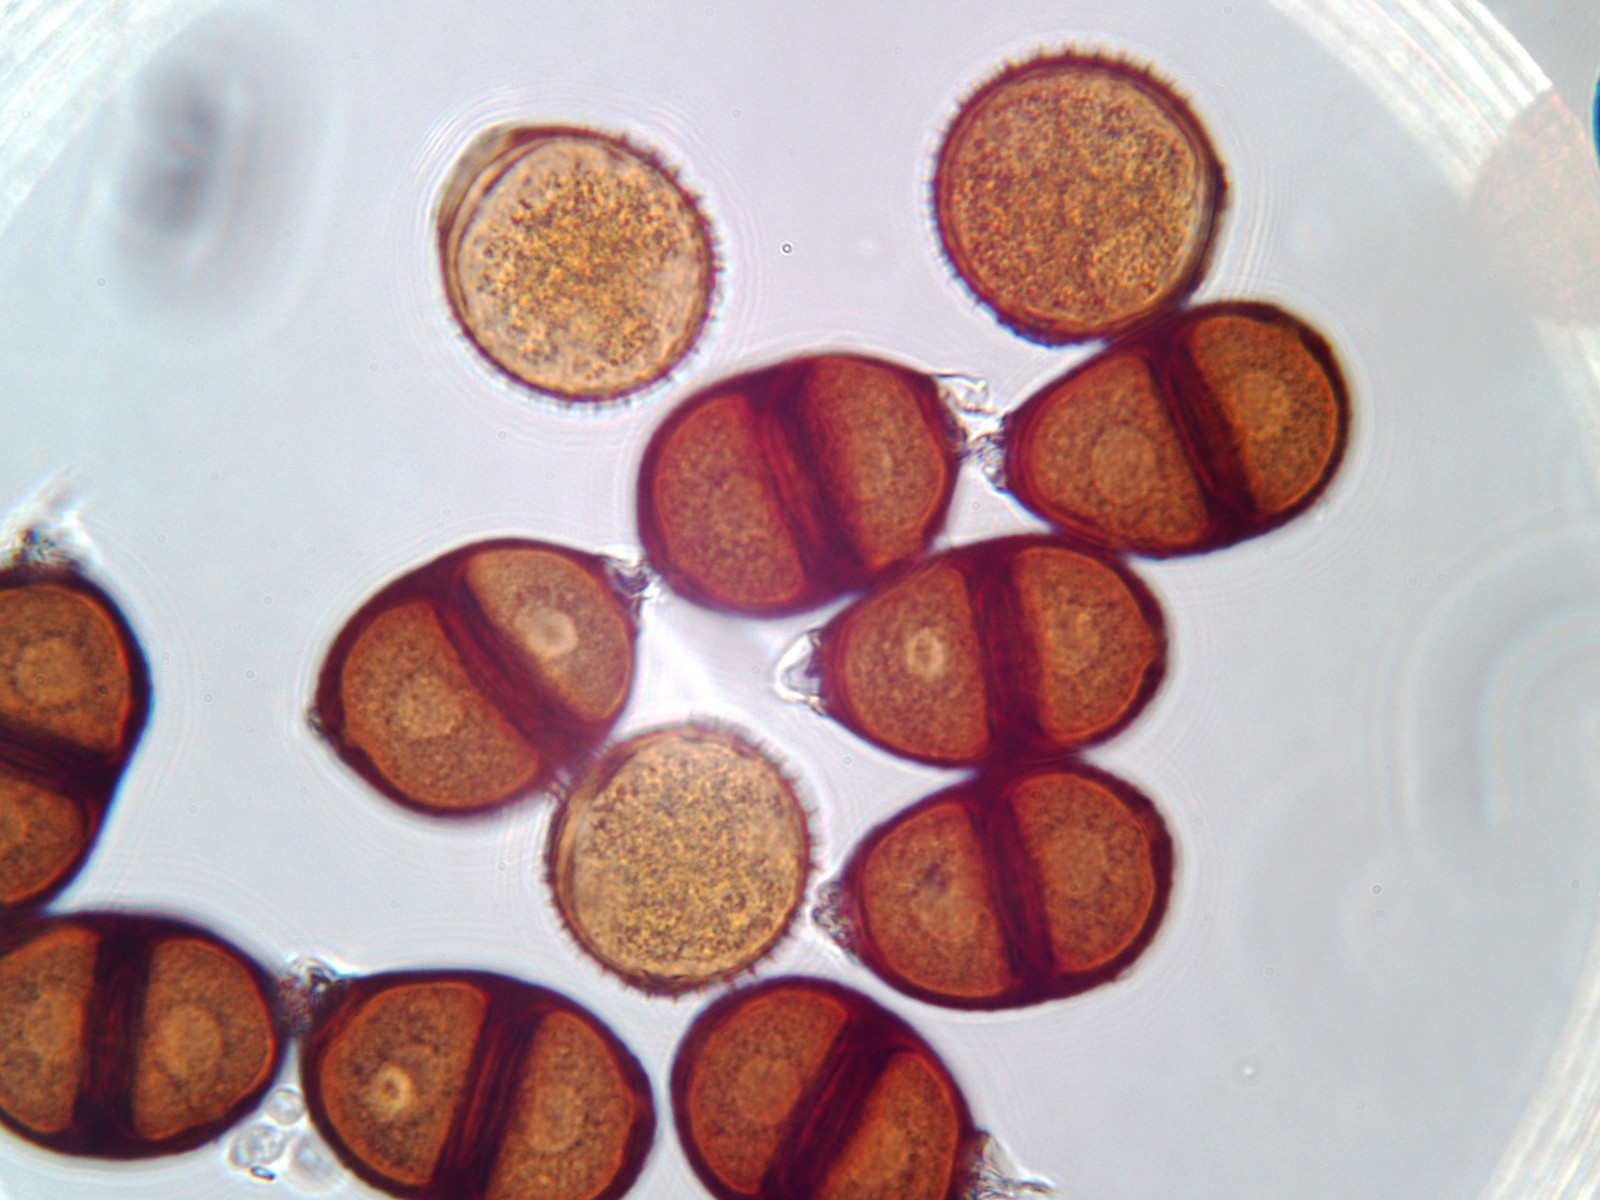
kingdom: Fungi
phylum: Basidiomycota
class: Pucciniomycetes
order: Pucciniales
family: Pucciniaceae
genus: Puccinia
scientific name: Puccinia cnici
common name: Rust fungus
